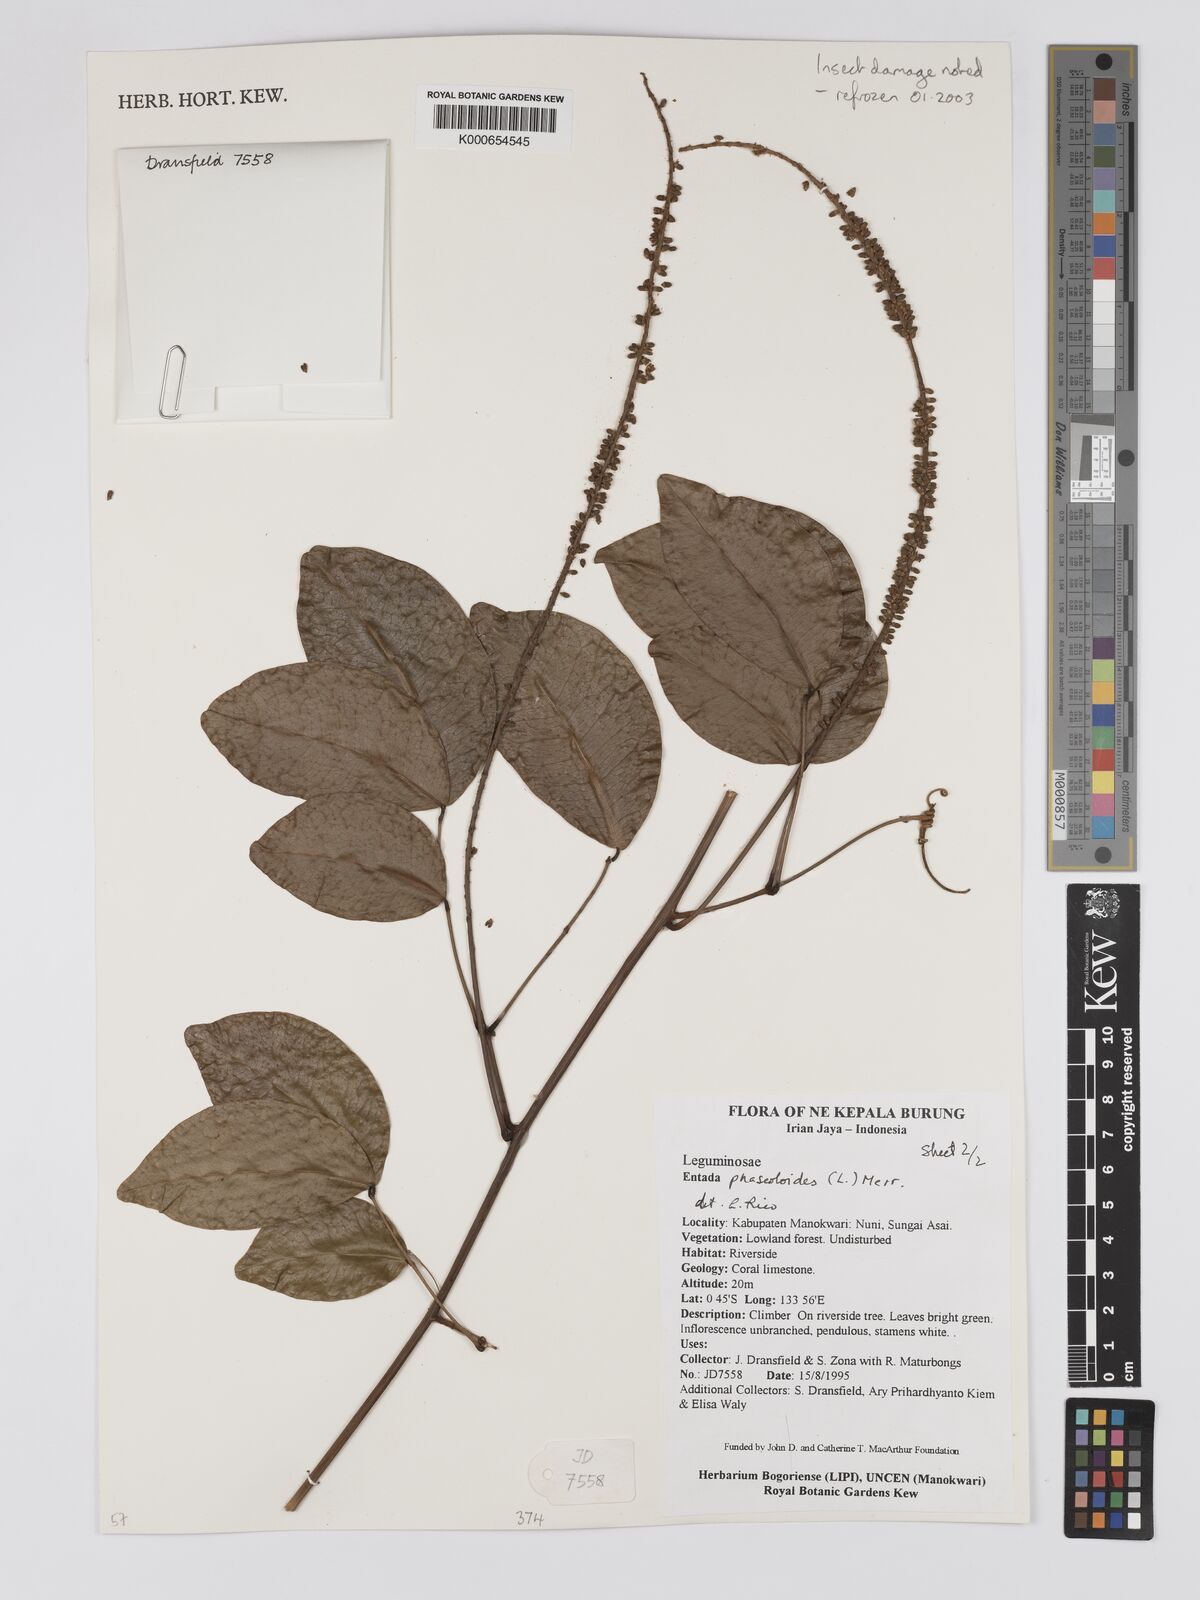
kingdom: Plantae
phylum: Tracheophyta
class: Magnoliopsida
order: Fabales
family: Fabaceae
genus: Entada
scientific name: Entada phaseoloides
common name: Matchbox-bean
